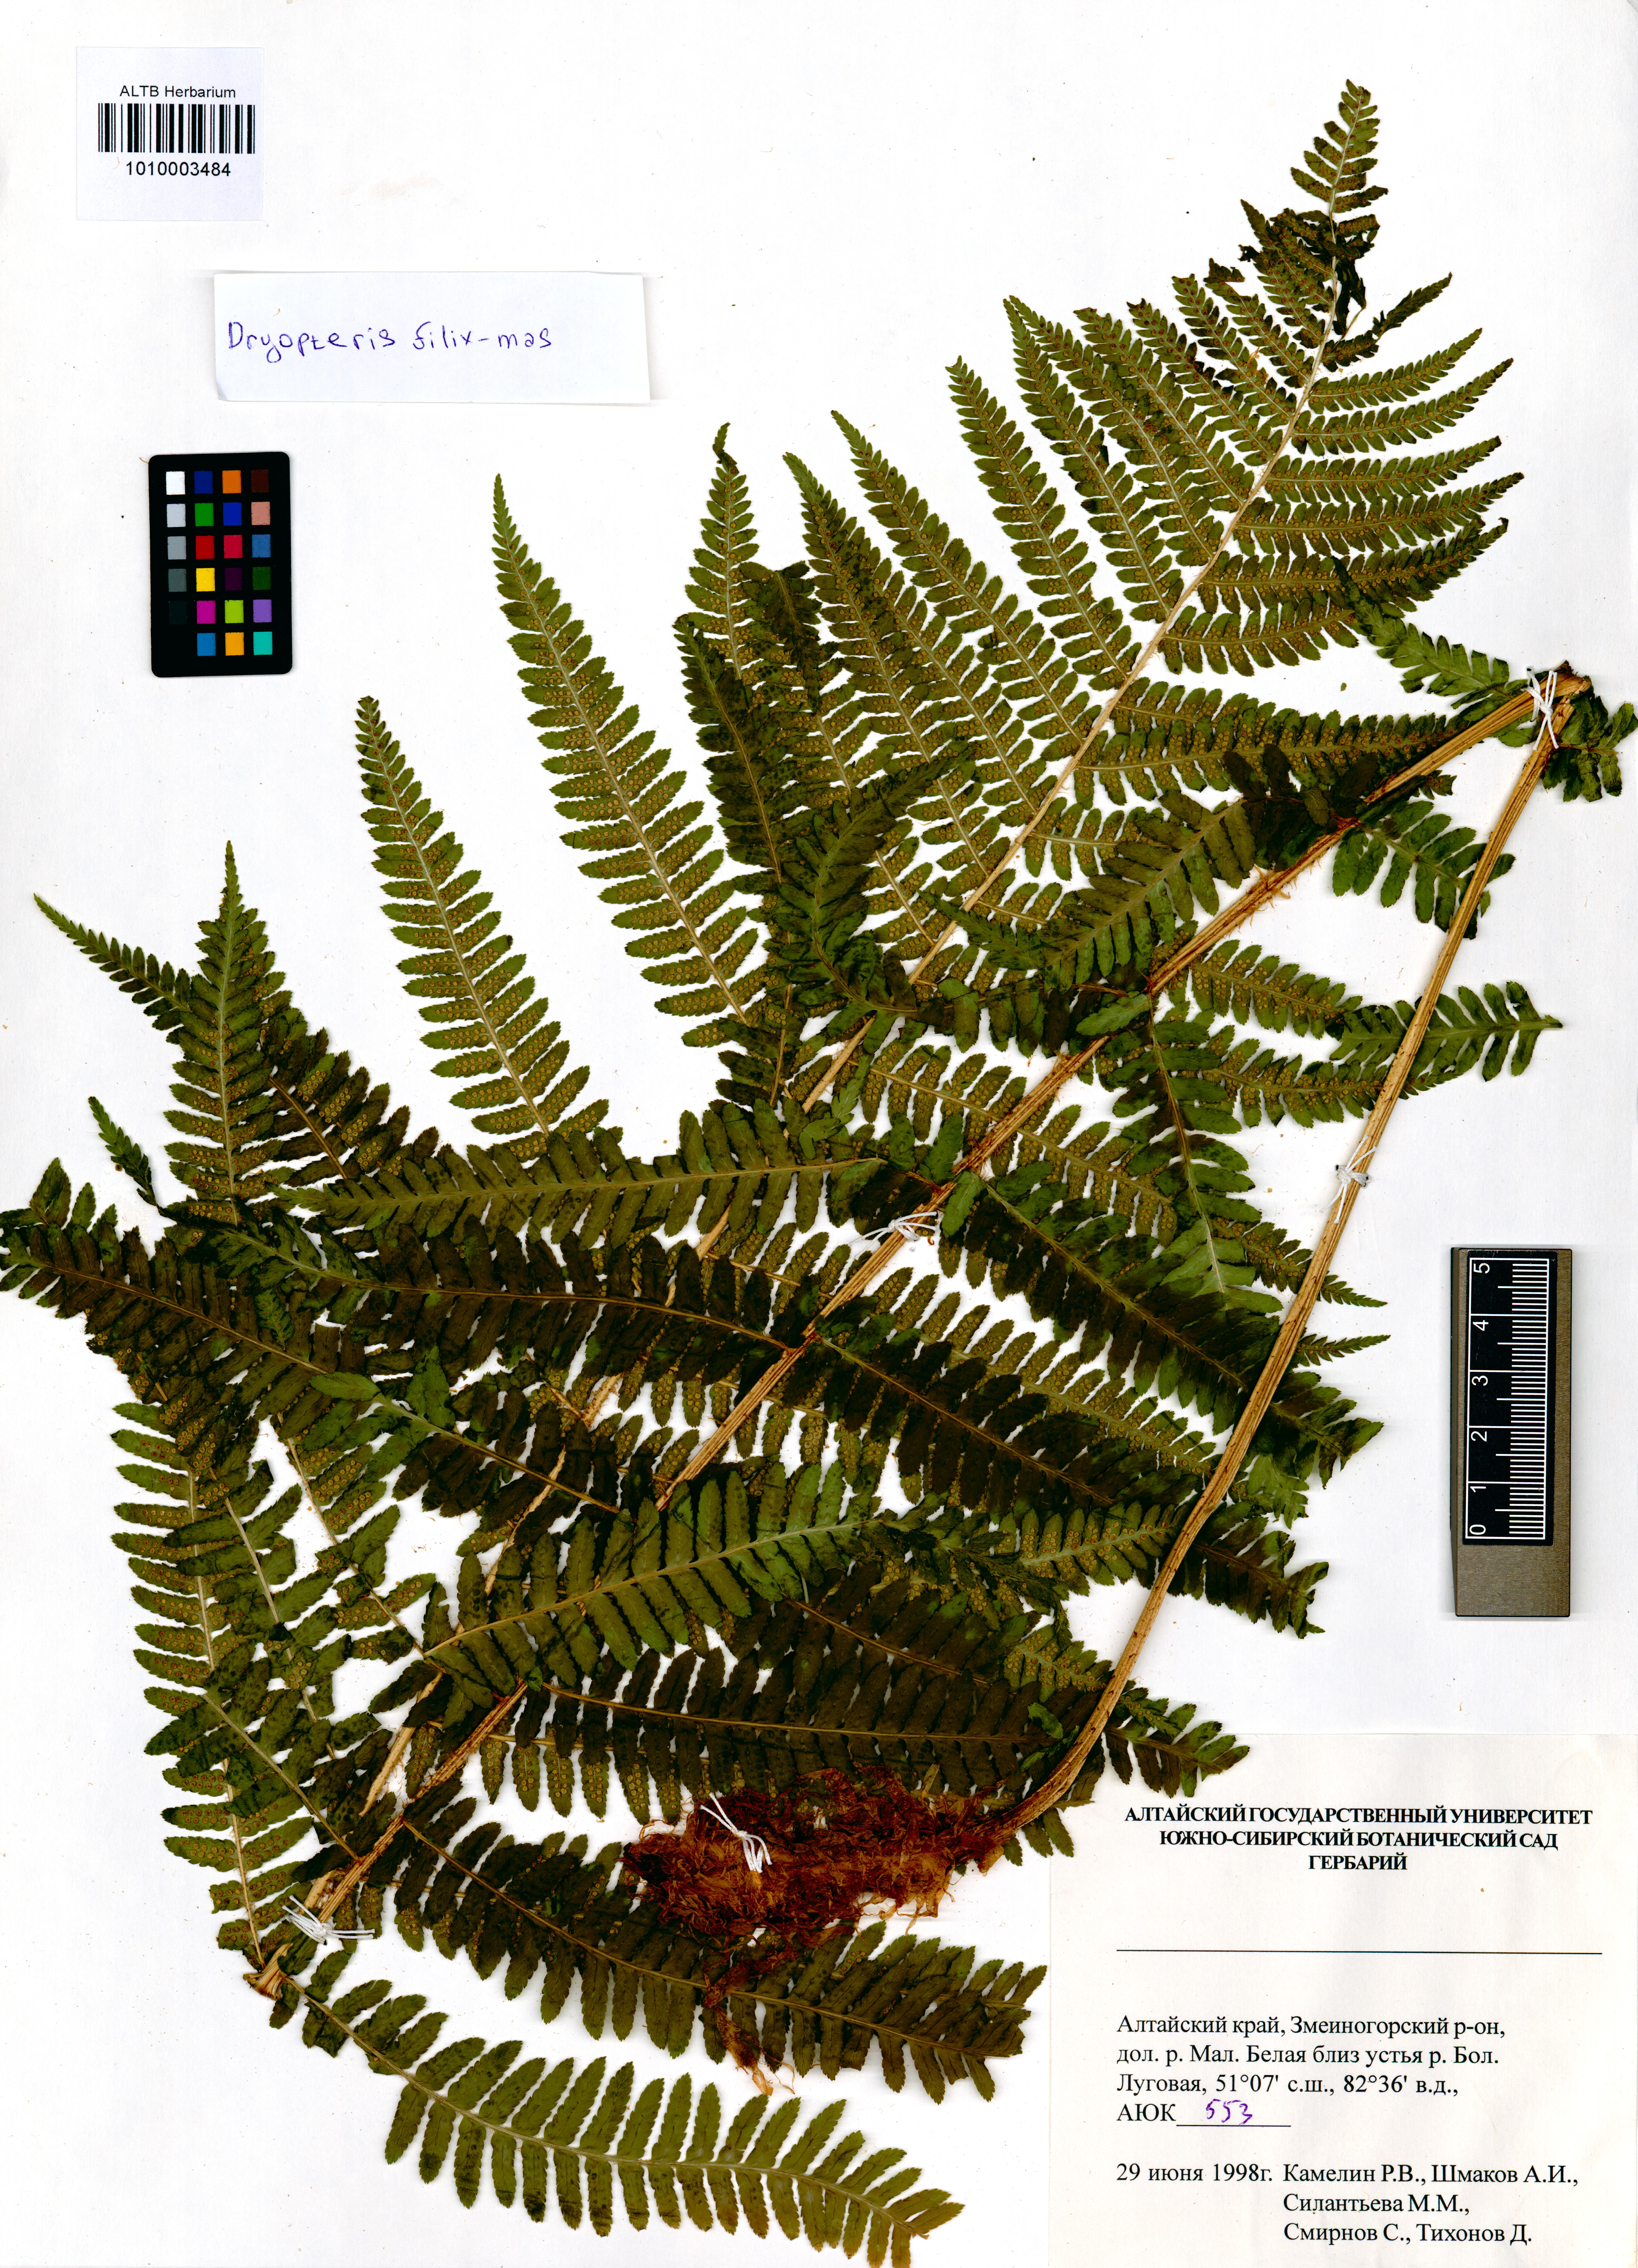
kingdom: Plantae
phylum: Tracheophyta
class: Polypodiopsida
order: Polypodiales
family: Dryopteridaceae
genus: Dryopteris
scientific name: Dryopteris filix-mas
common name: Male fern
